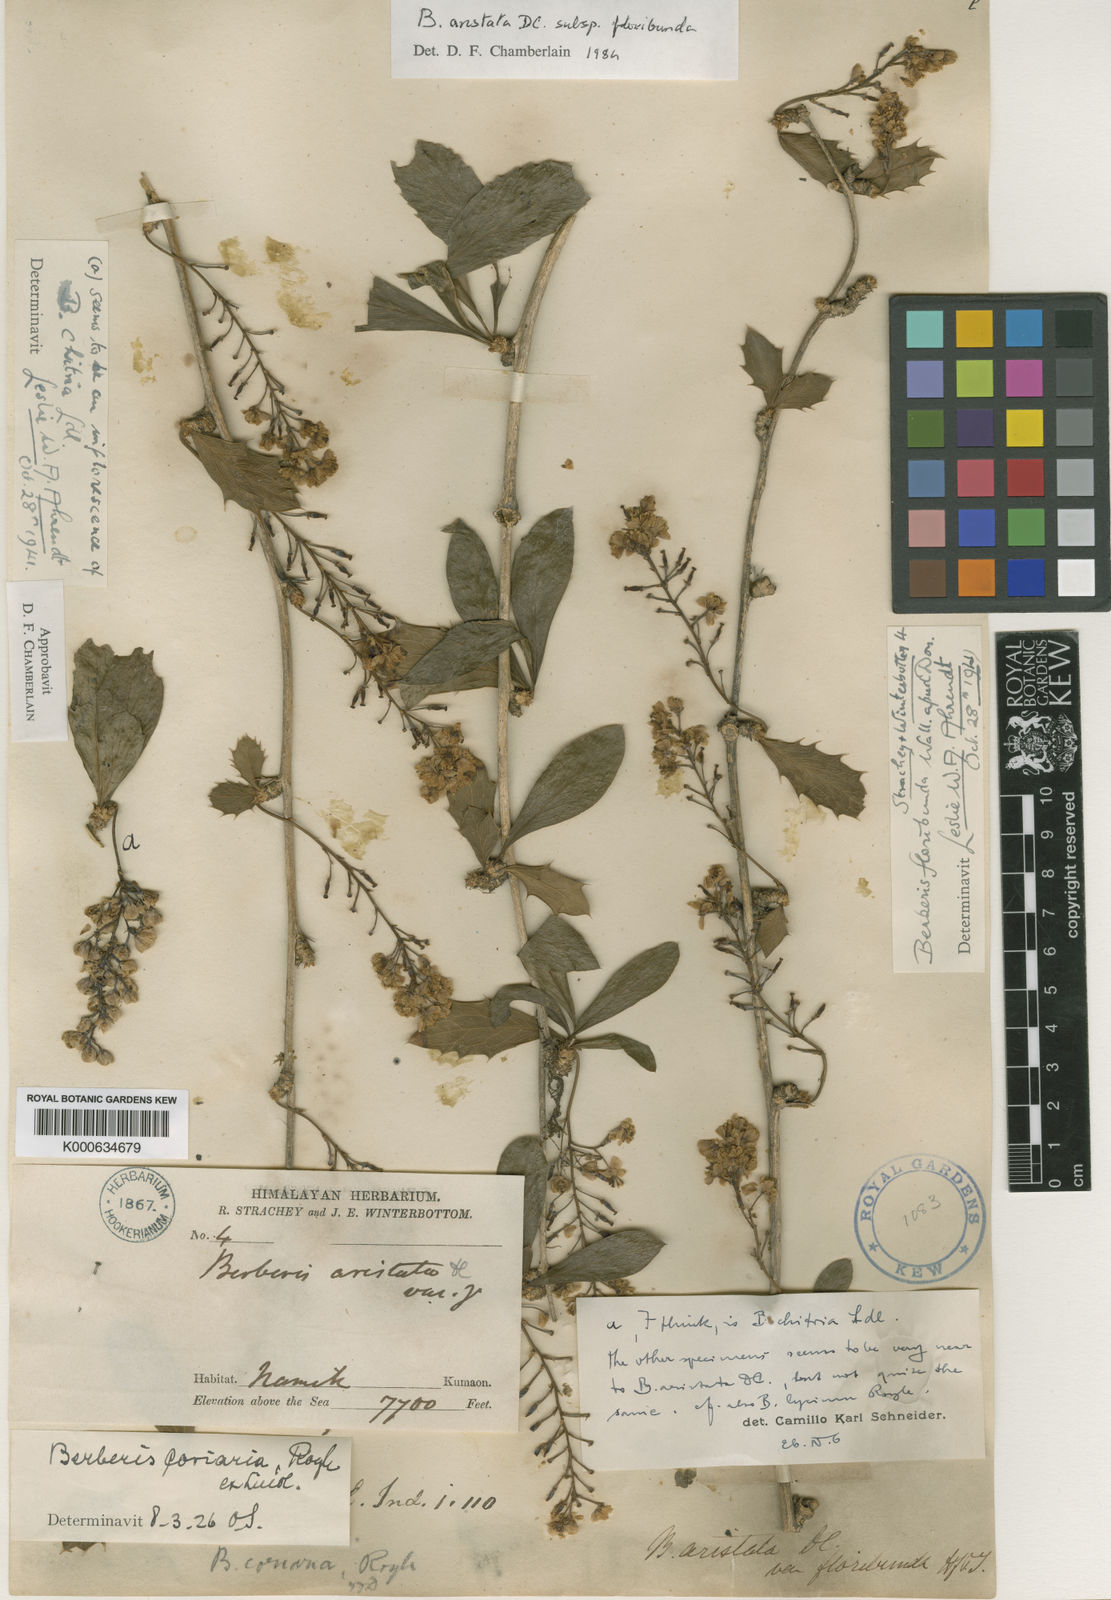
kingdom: Plantae
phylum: Tracheophyta
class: Magnoliopsida
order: Ranunculales
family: Berberidaceae
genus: Berberis
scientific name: Berberis
